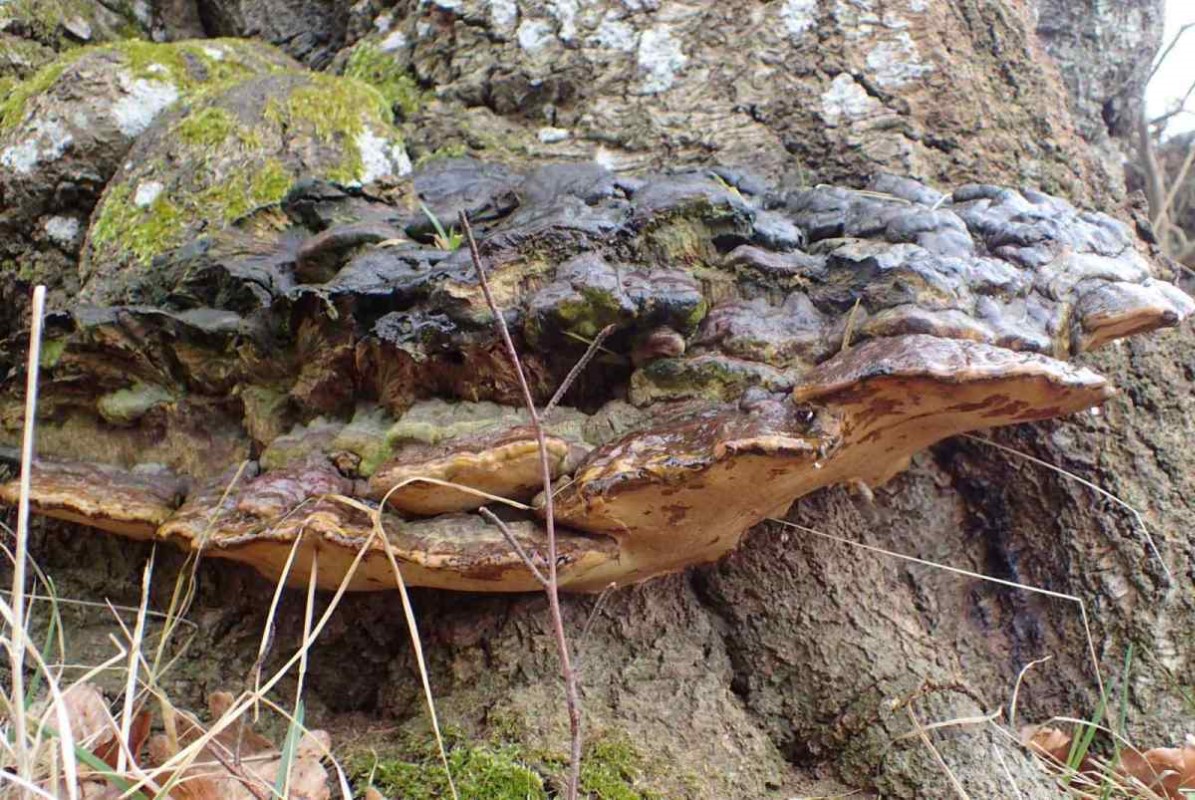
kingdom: Fungi
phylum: Basidiomycota
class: Agaricomycetes
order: Polyporales
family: Polyporaceae
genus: Ganoderma
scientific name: Ganoderma pfeifferi
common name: kobberrød lakporesvamp
